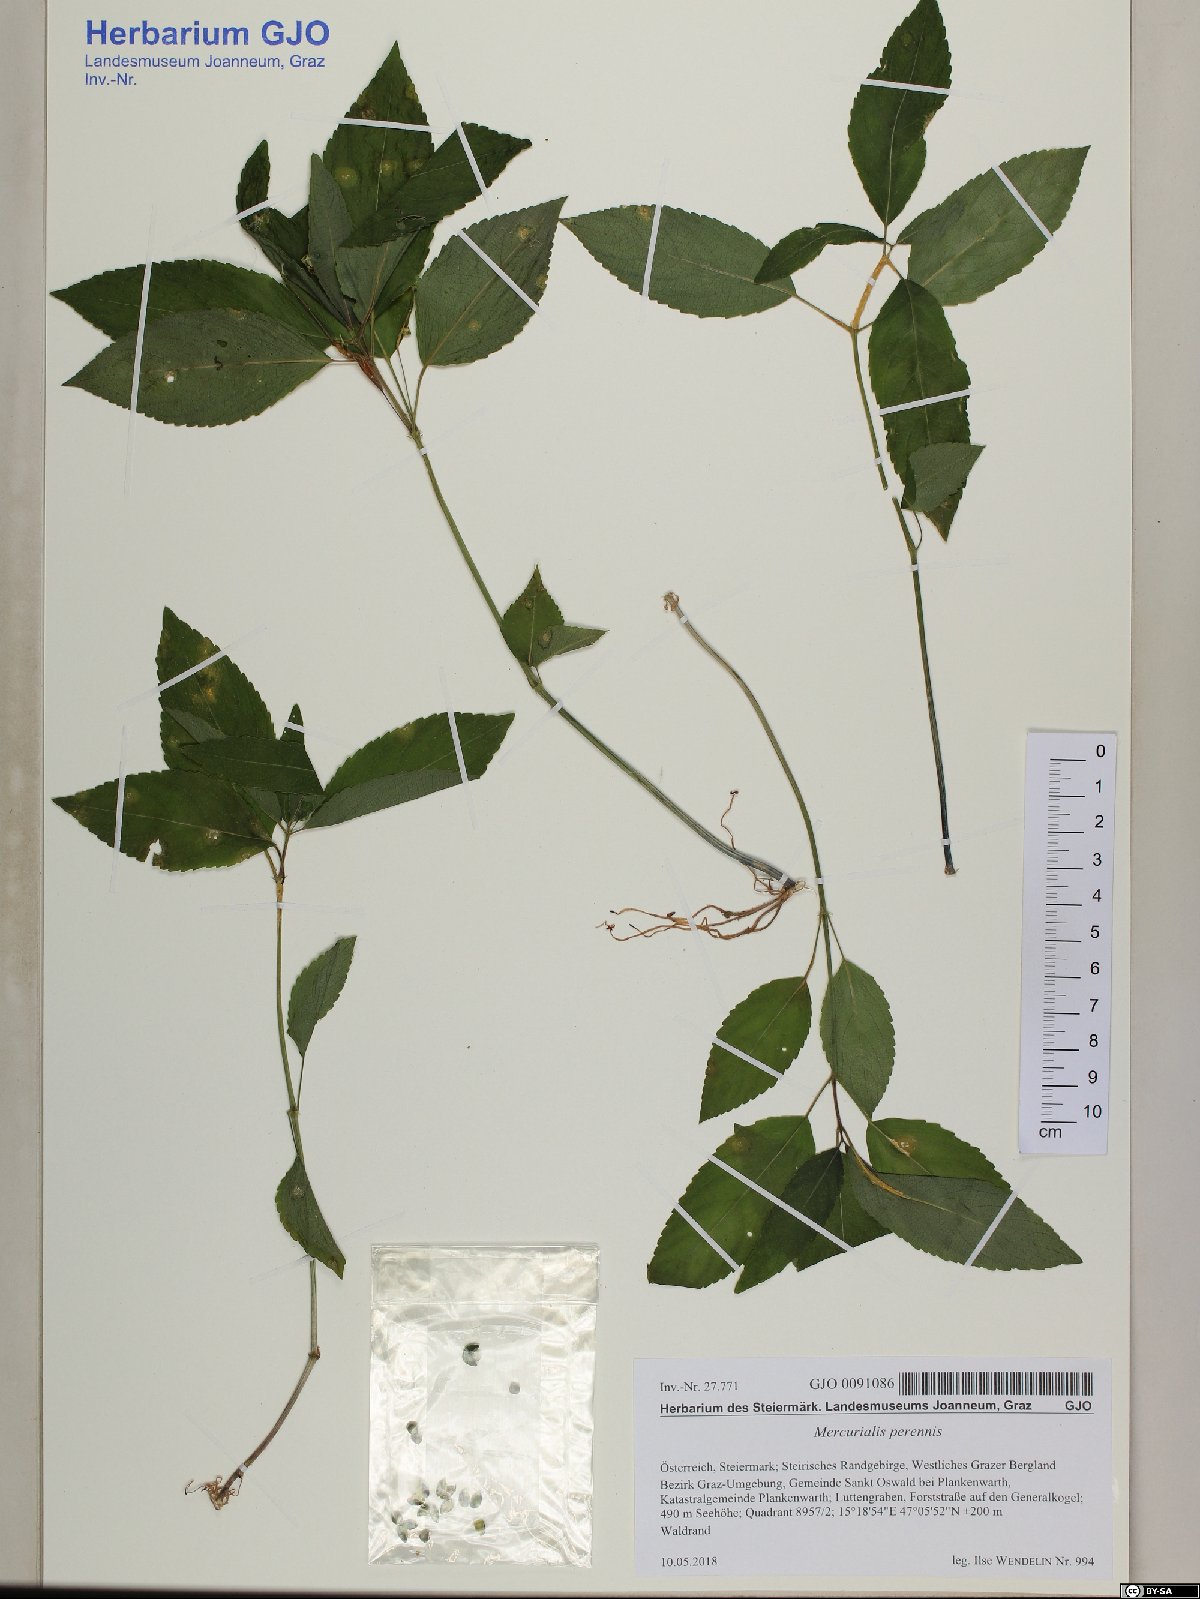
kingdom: Plantae
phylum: Tracheophyta
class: Magnoliopsida
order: Malpighiales
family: Euphorbiaceae
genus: Mercurialis
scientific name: Mercurialis perennis
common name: Dog mercury
